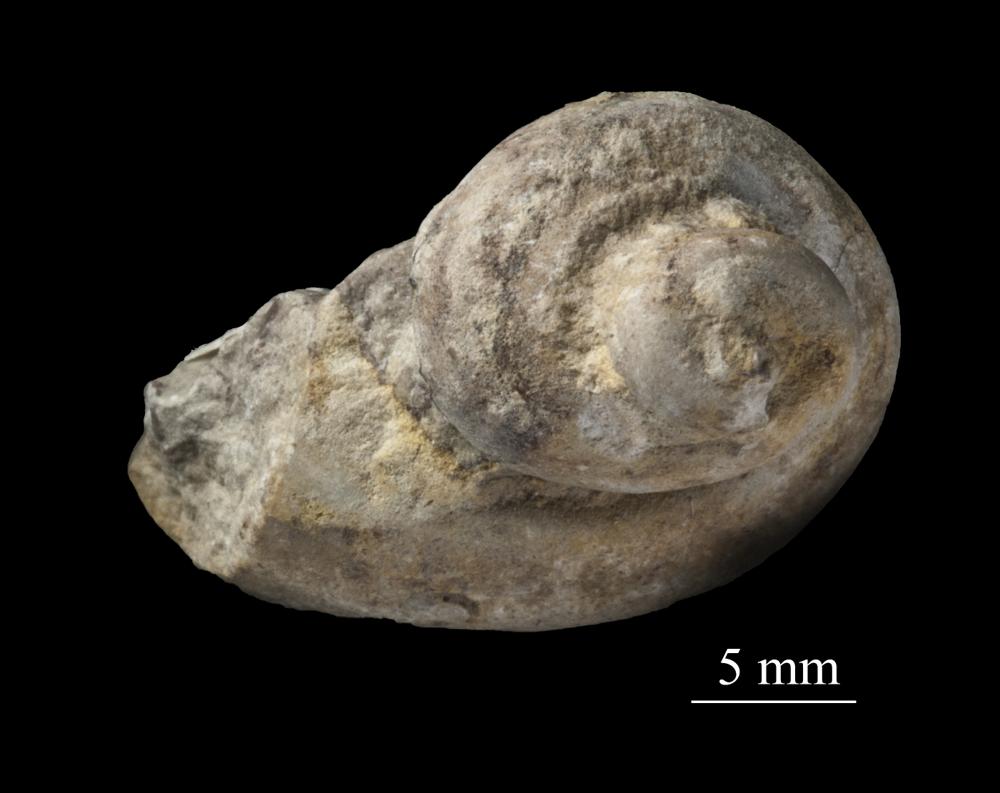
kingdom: Animalia
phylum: Mollusca
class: Gastropoda
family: Lophospiridae
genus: Loxoplocus
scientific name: Loxoplocus Worthenia vermetus
